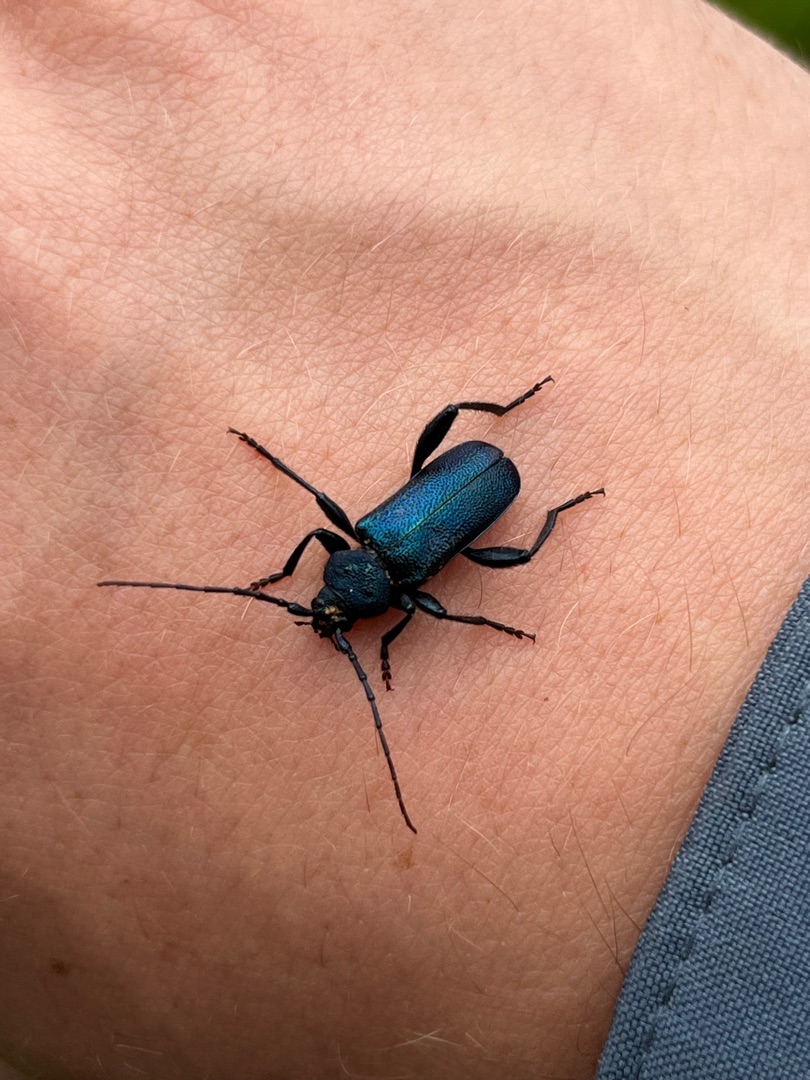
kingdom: Animalia
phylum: Arthropoda
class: Insecta
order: Coleoptera
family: Cerambycidae
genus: Agapanthia
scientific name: Agapanthia violacea
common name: Violbuk
